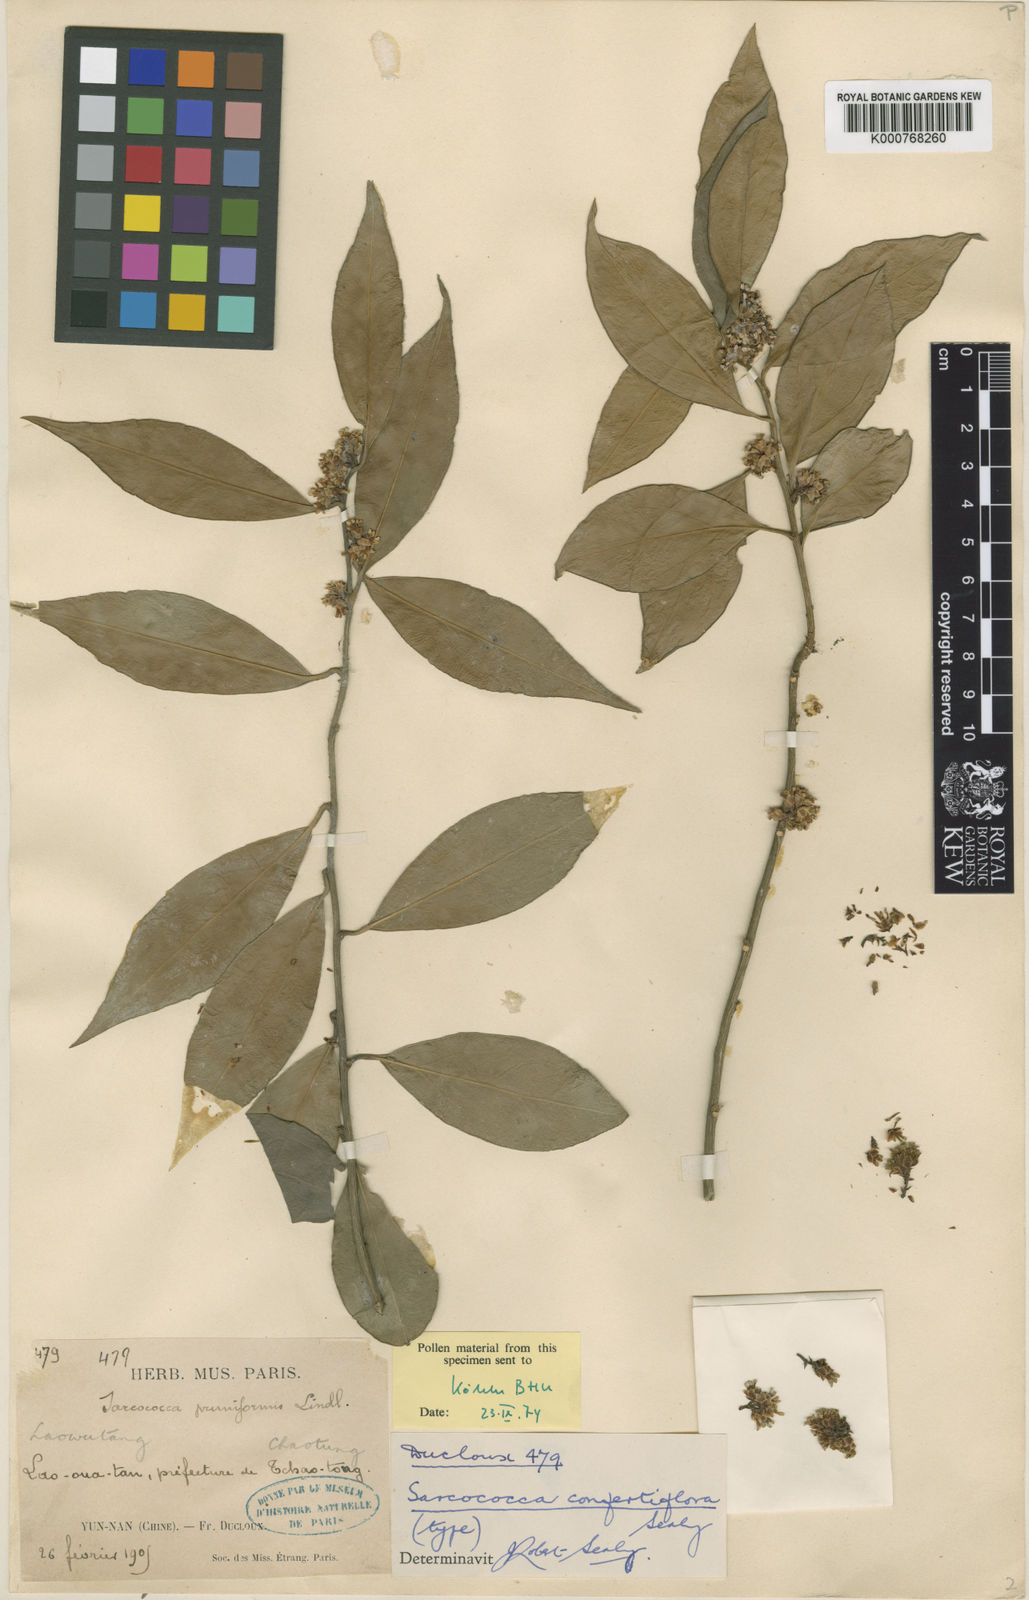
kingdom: Plantae
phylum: Tracheophyta
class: Magnoliopsida
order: Buxales
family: Buxaceae
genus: Sarcococca
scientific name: Sarcococca confertiflora
